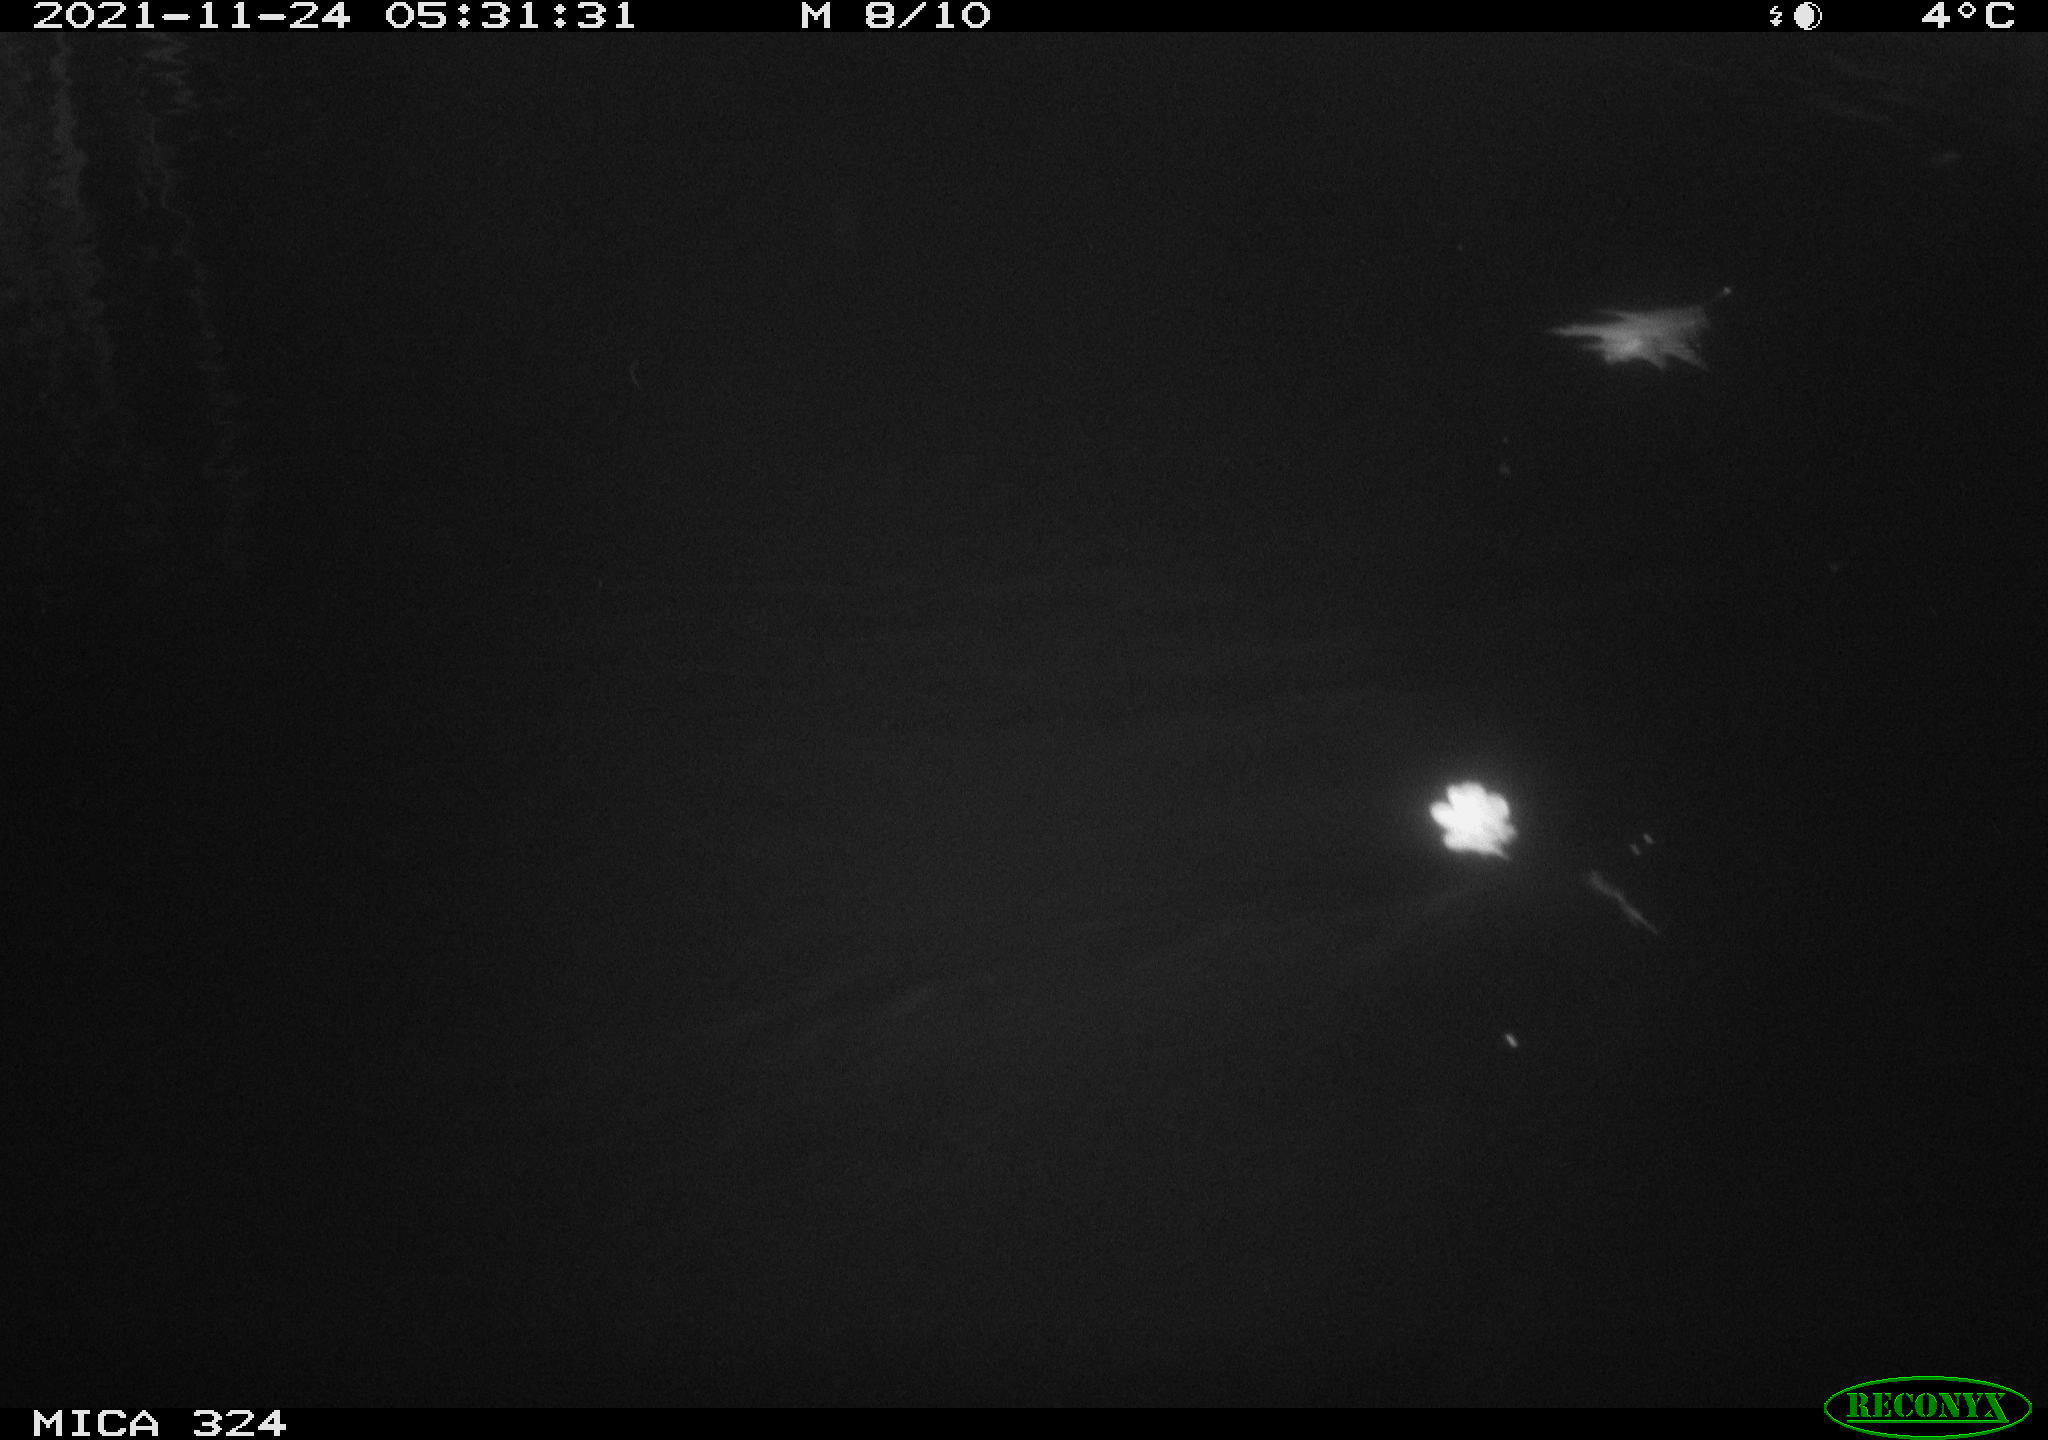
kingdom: Animalia
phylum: Chordata
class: Mammalia
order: Rodentia
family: Cricetidae
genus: Ondatra
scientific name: Ondatra zibethicus
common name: Muskrat
